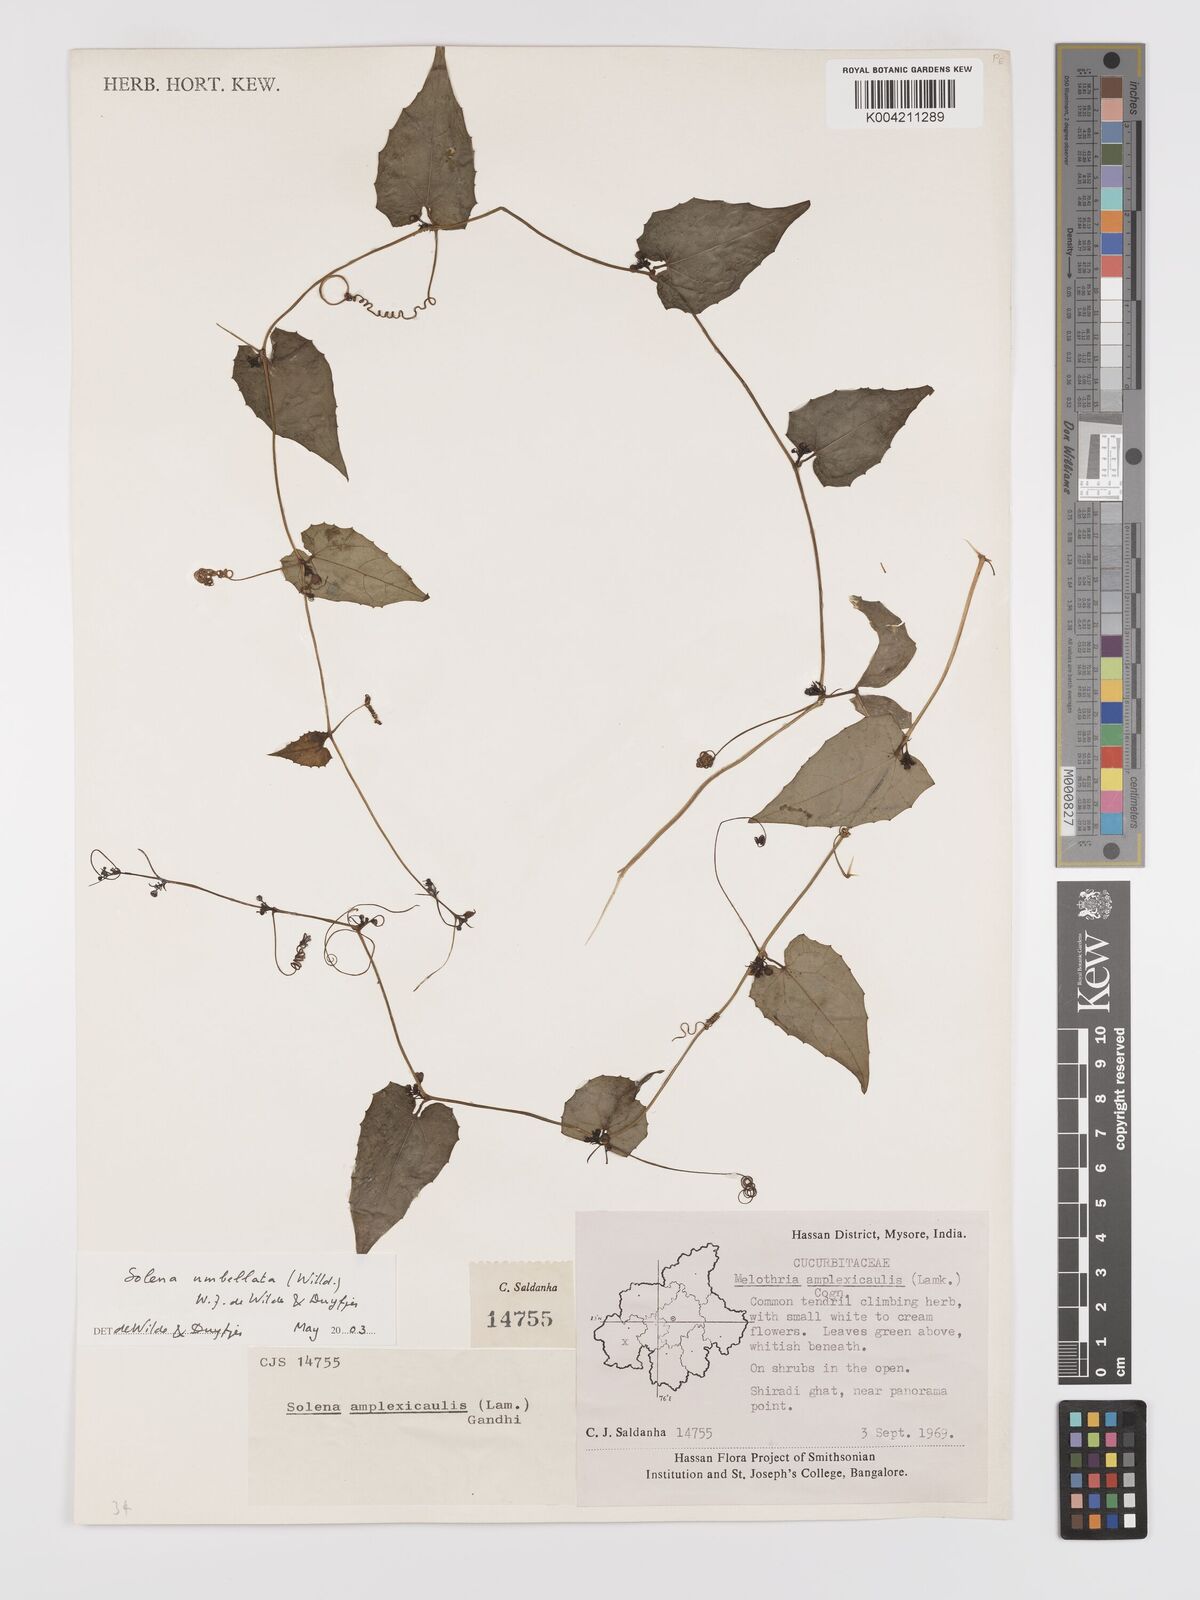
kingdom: Plantae
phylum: Tracheophyta
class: Magnoliopsida
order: Cucurbitales
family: Cucurbitaceae
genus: Solena
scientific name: Solena amplexicaulis
